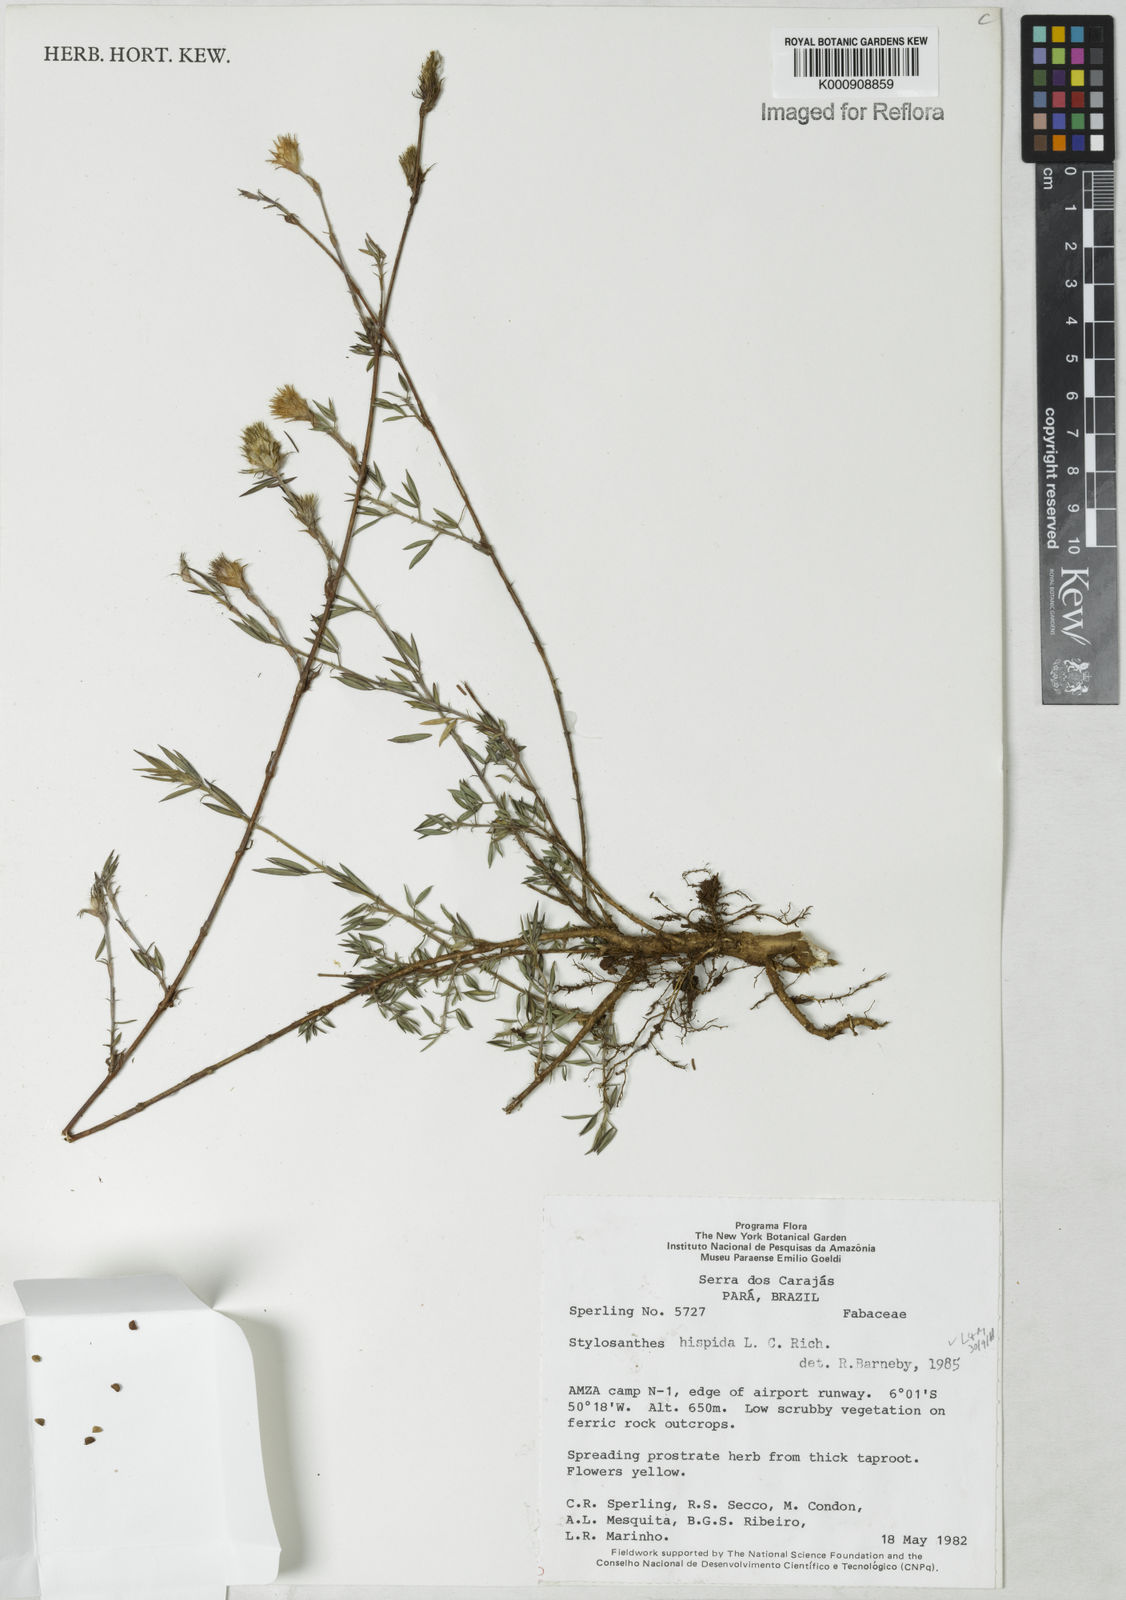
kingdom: Plantae
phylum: Tracheophyta
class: Magnoliopsida
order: Fabales
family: Fabaceae
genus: Stylosanthes
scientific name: Stylosanthes hispida
